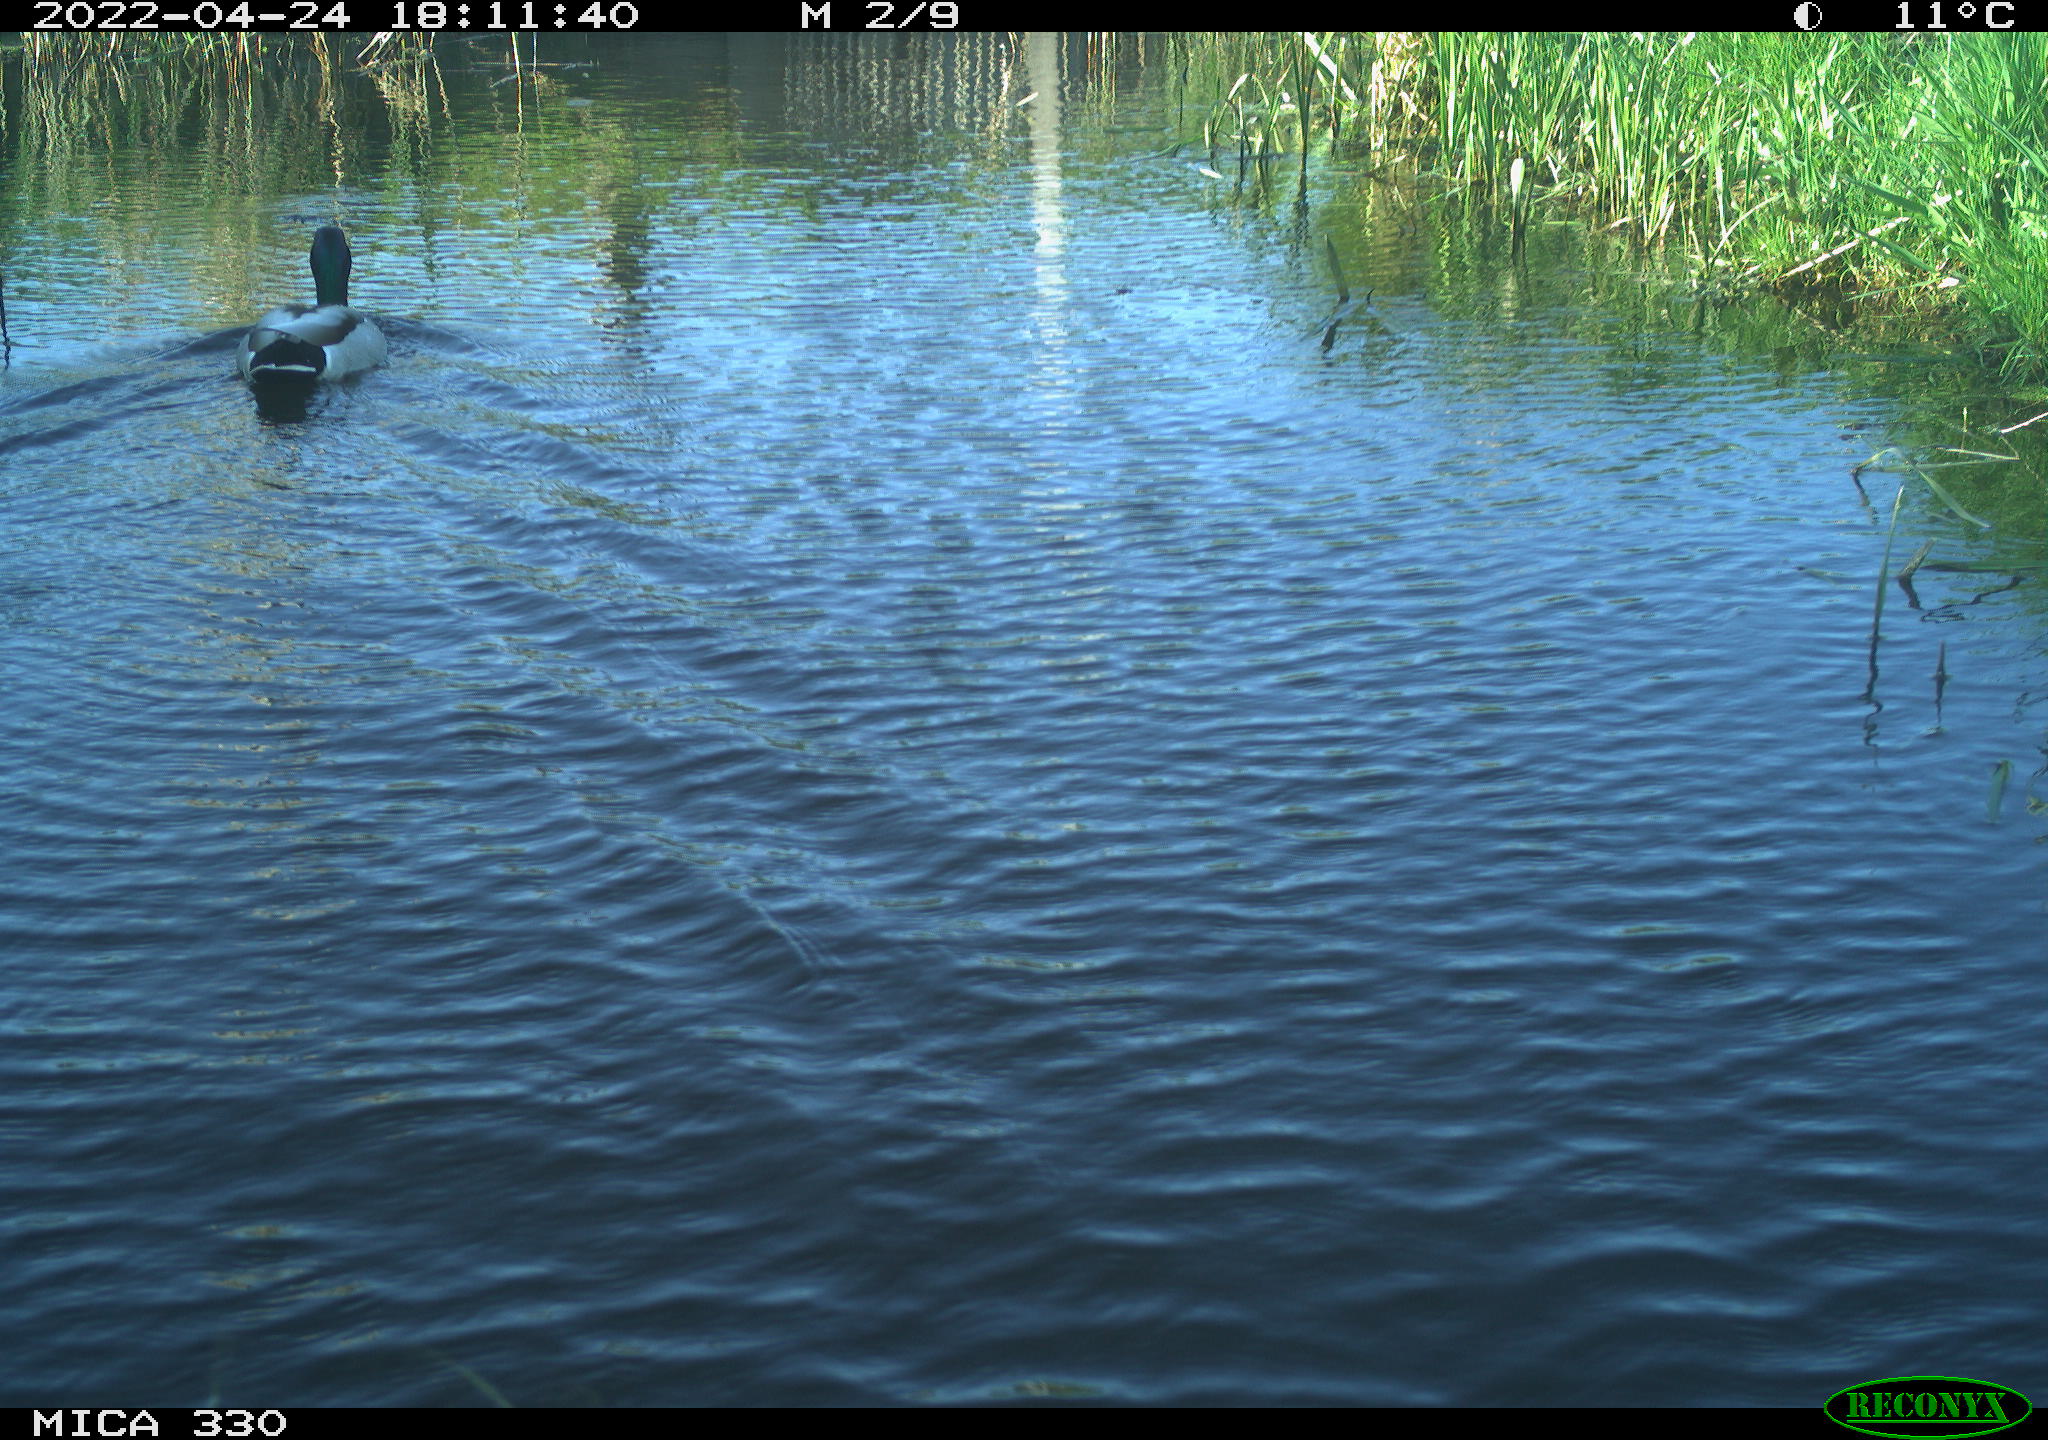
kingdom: Animalia
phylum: Chordata
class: Aves
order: Anseriformes
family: Anatidae
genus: Anas
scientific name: Anas platyrhynchos
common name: Mallard
